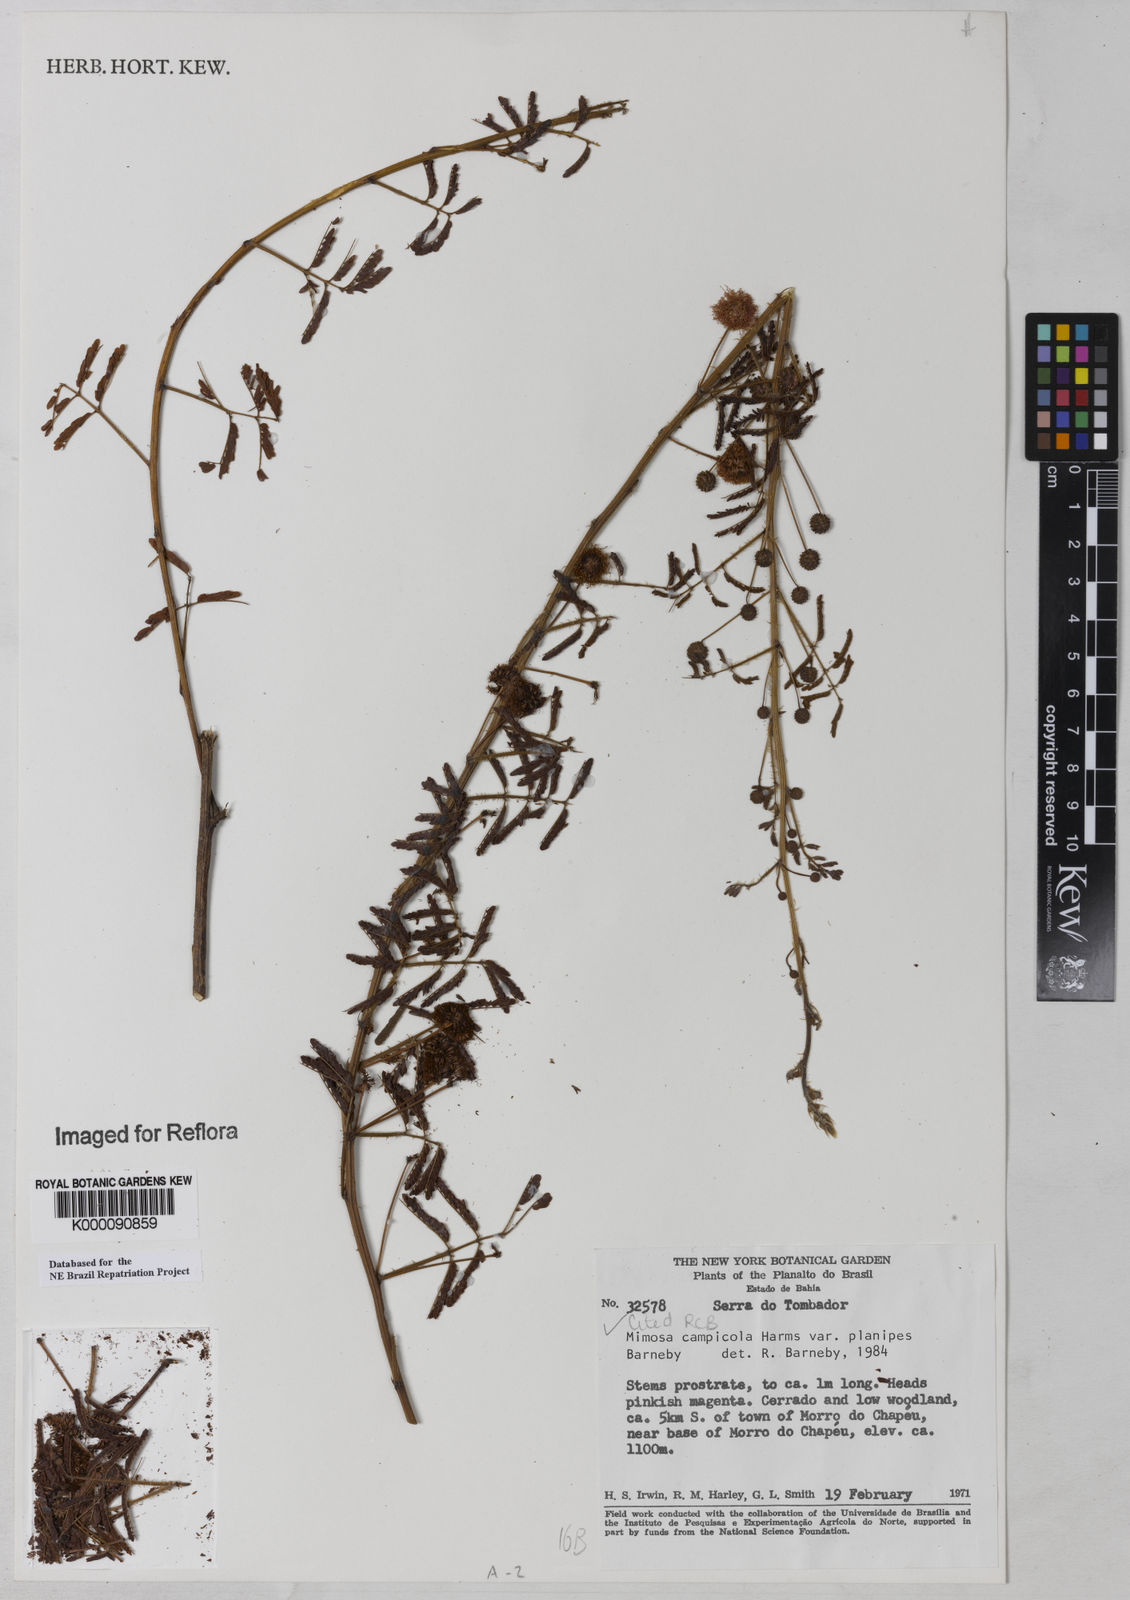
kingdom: Plantae
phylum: Tracheophyta
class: Magnoliopsida
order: Fabales
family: Fabaceae
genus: Mimosa
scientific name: Mimosa campicola
